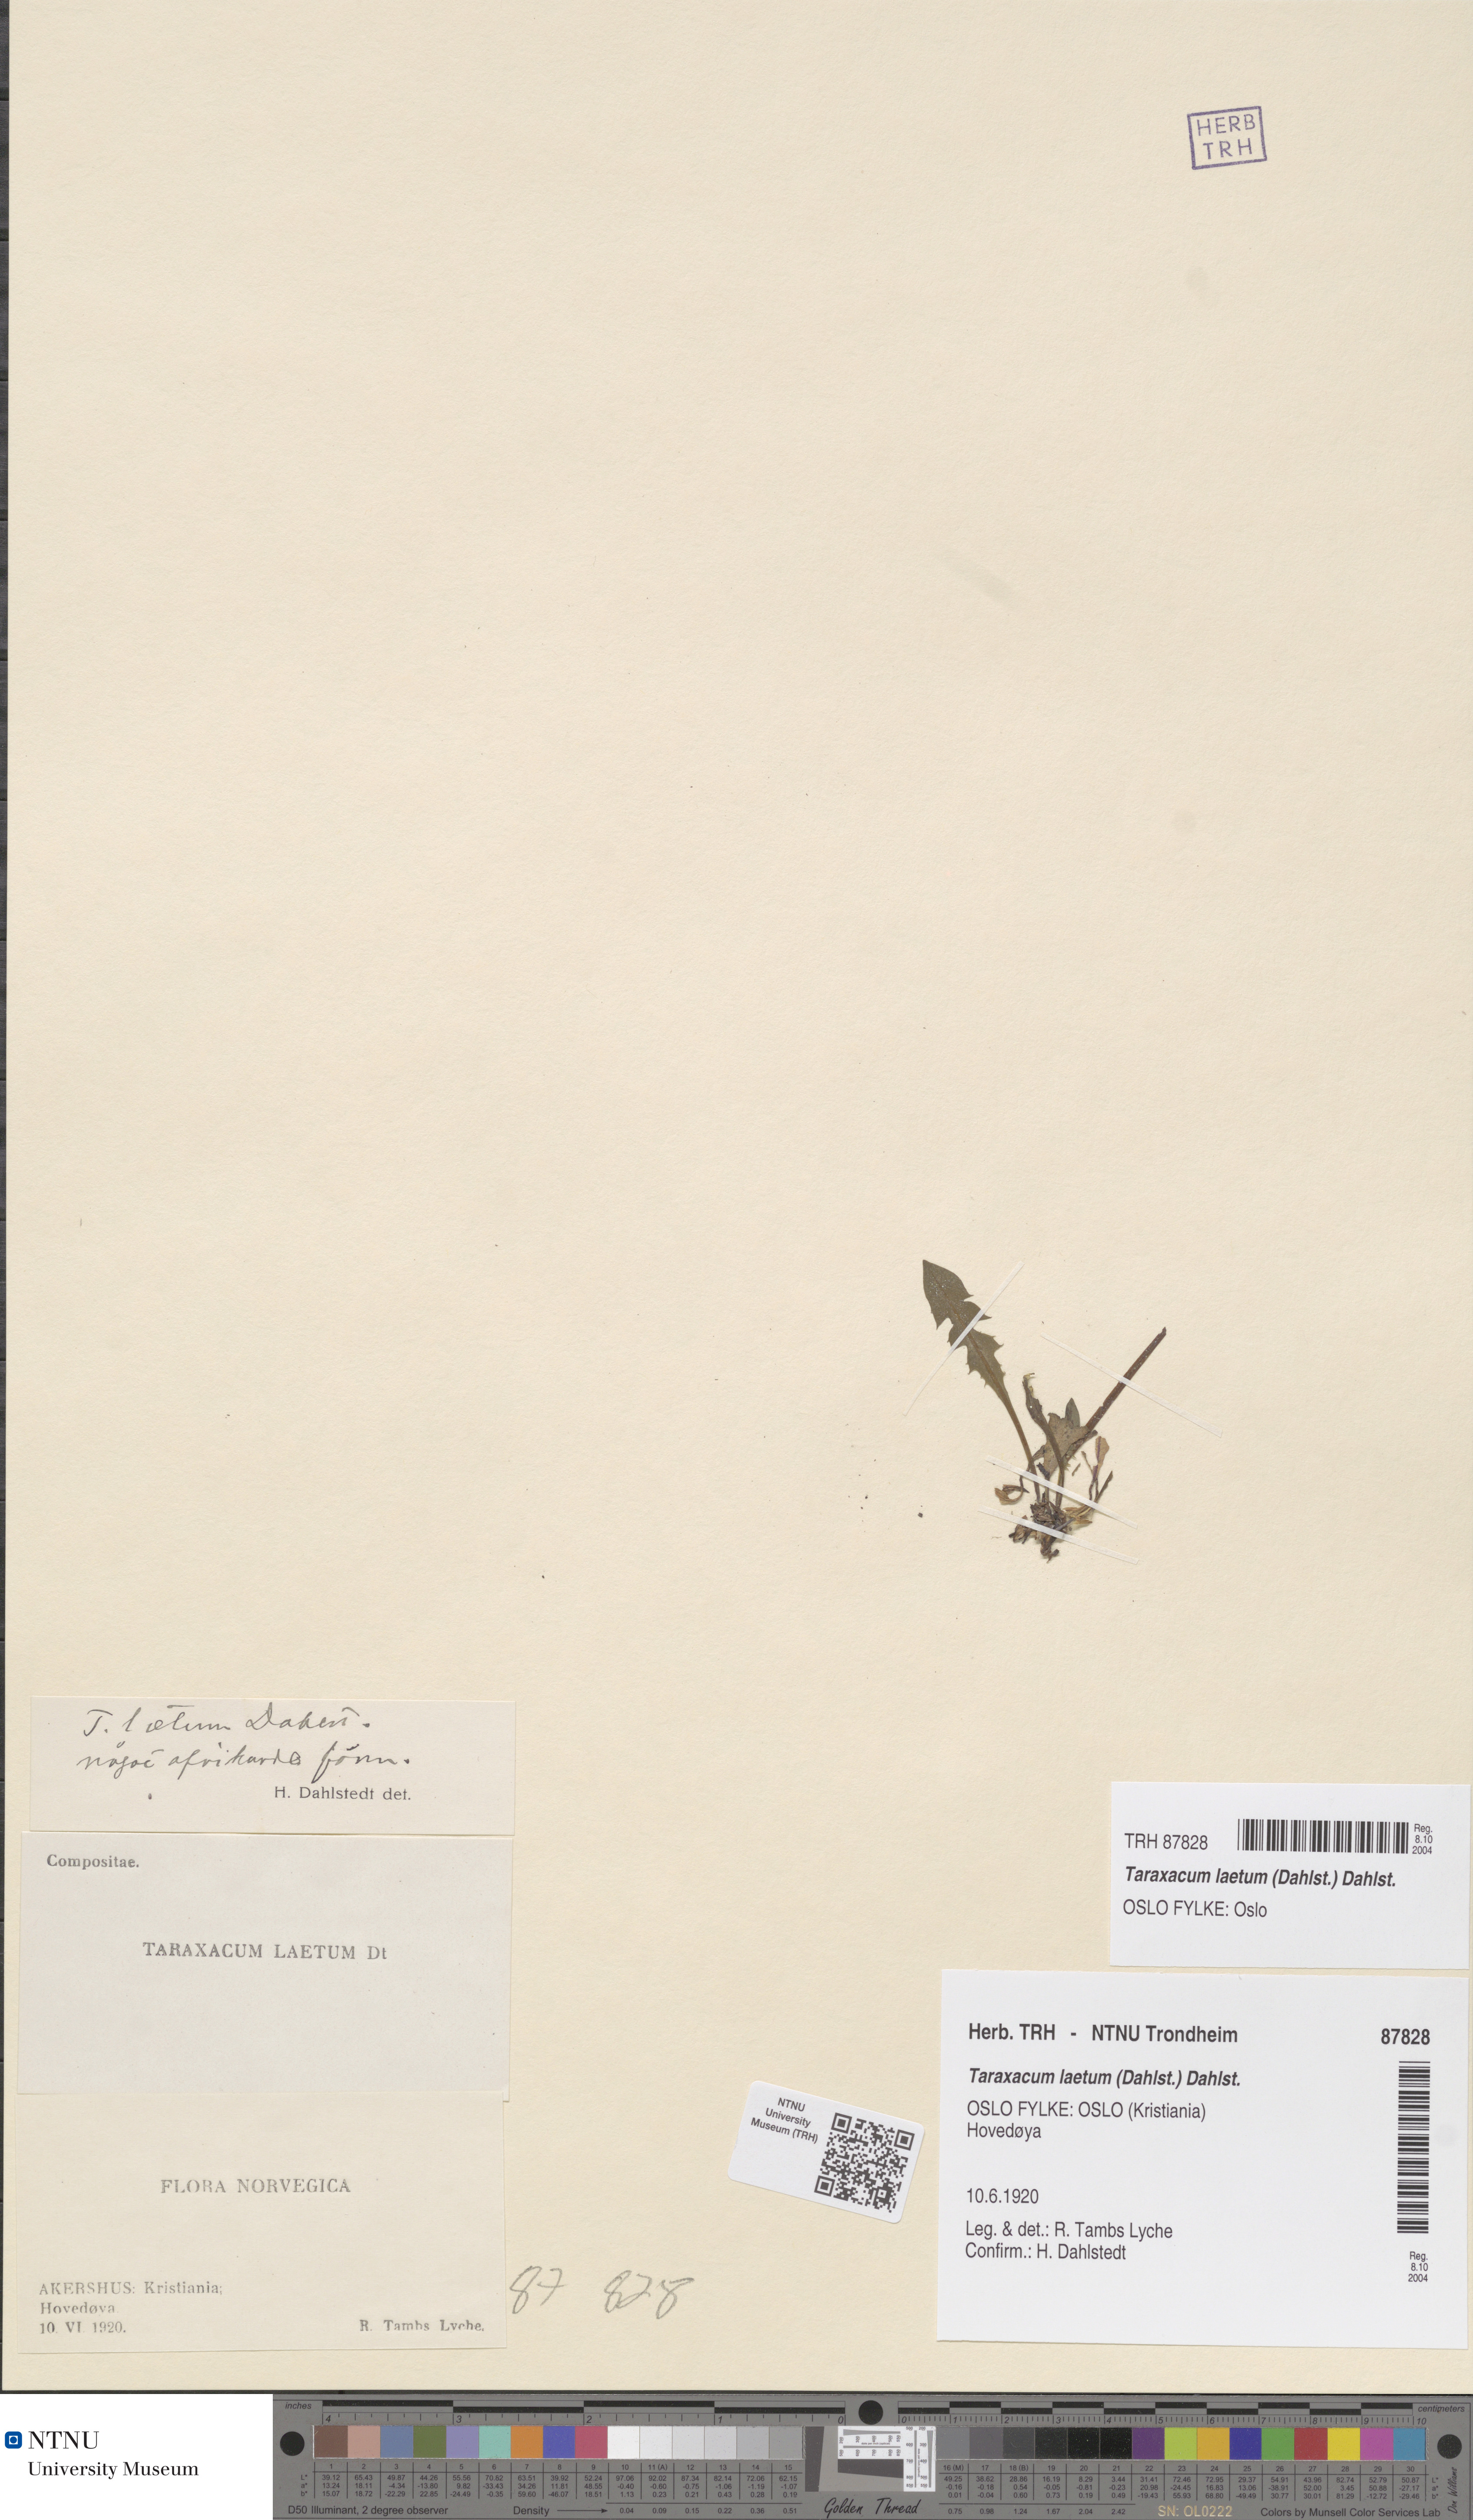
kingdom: Plantae
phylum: Tracheophyta
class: Magnoliopsida
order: Asterales
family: Asteraceae
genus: Taraxacum
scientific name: Taraxacum laetum
